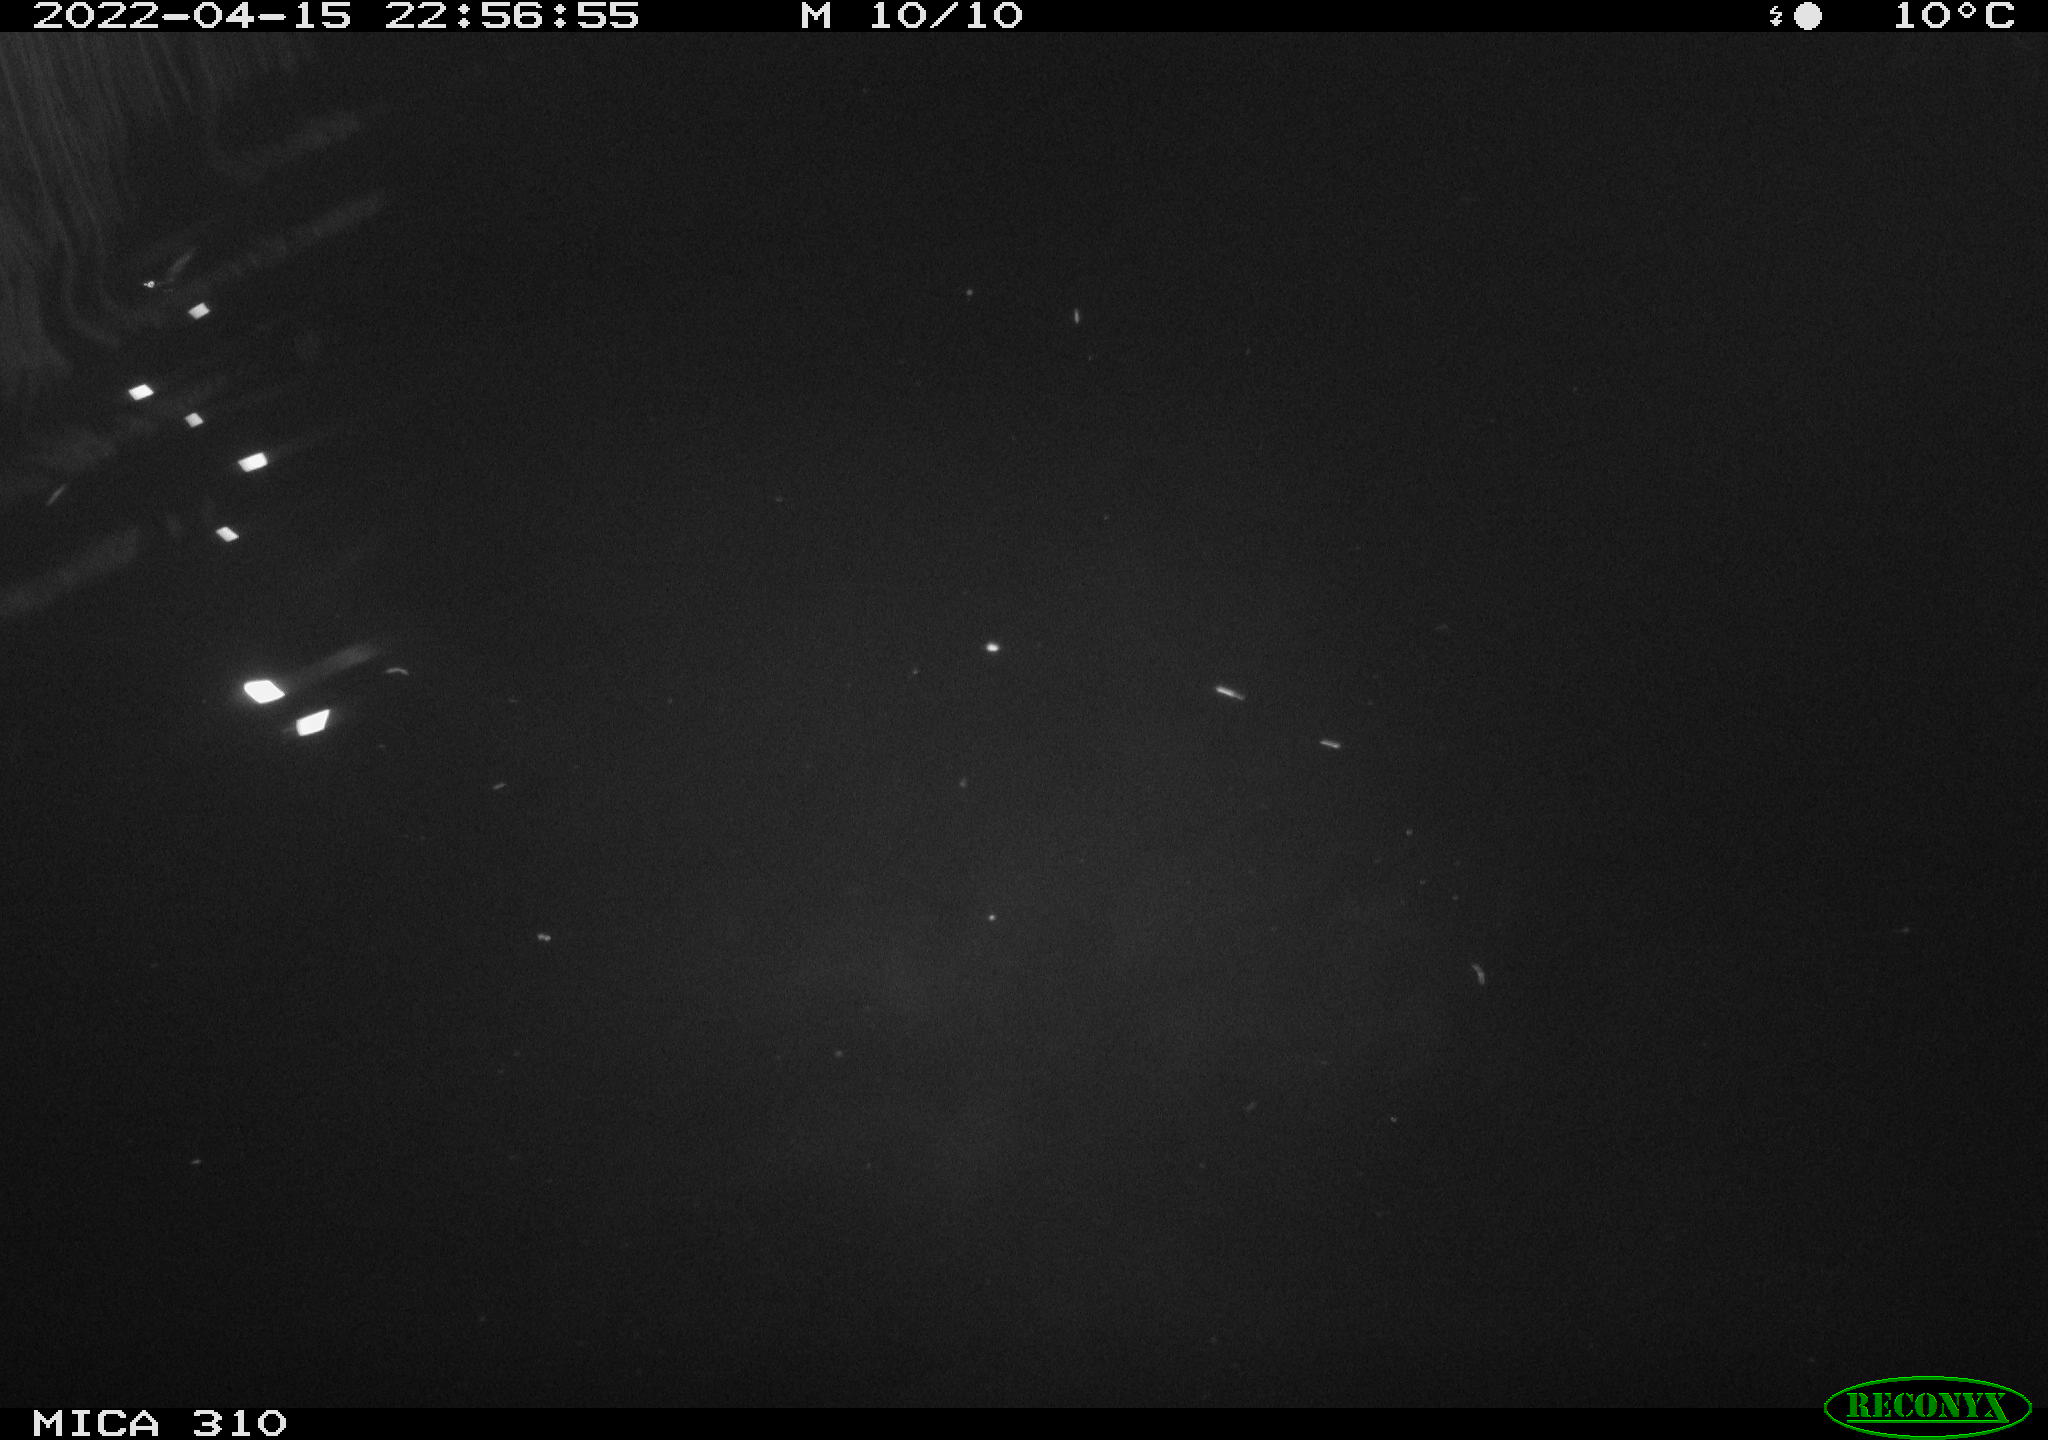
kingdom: Animalia
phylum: Chordata
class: Aves
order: Anseriformes
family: Anatidae
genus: Anas
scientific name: Anas platyrhynchos
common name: Mallard
